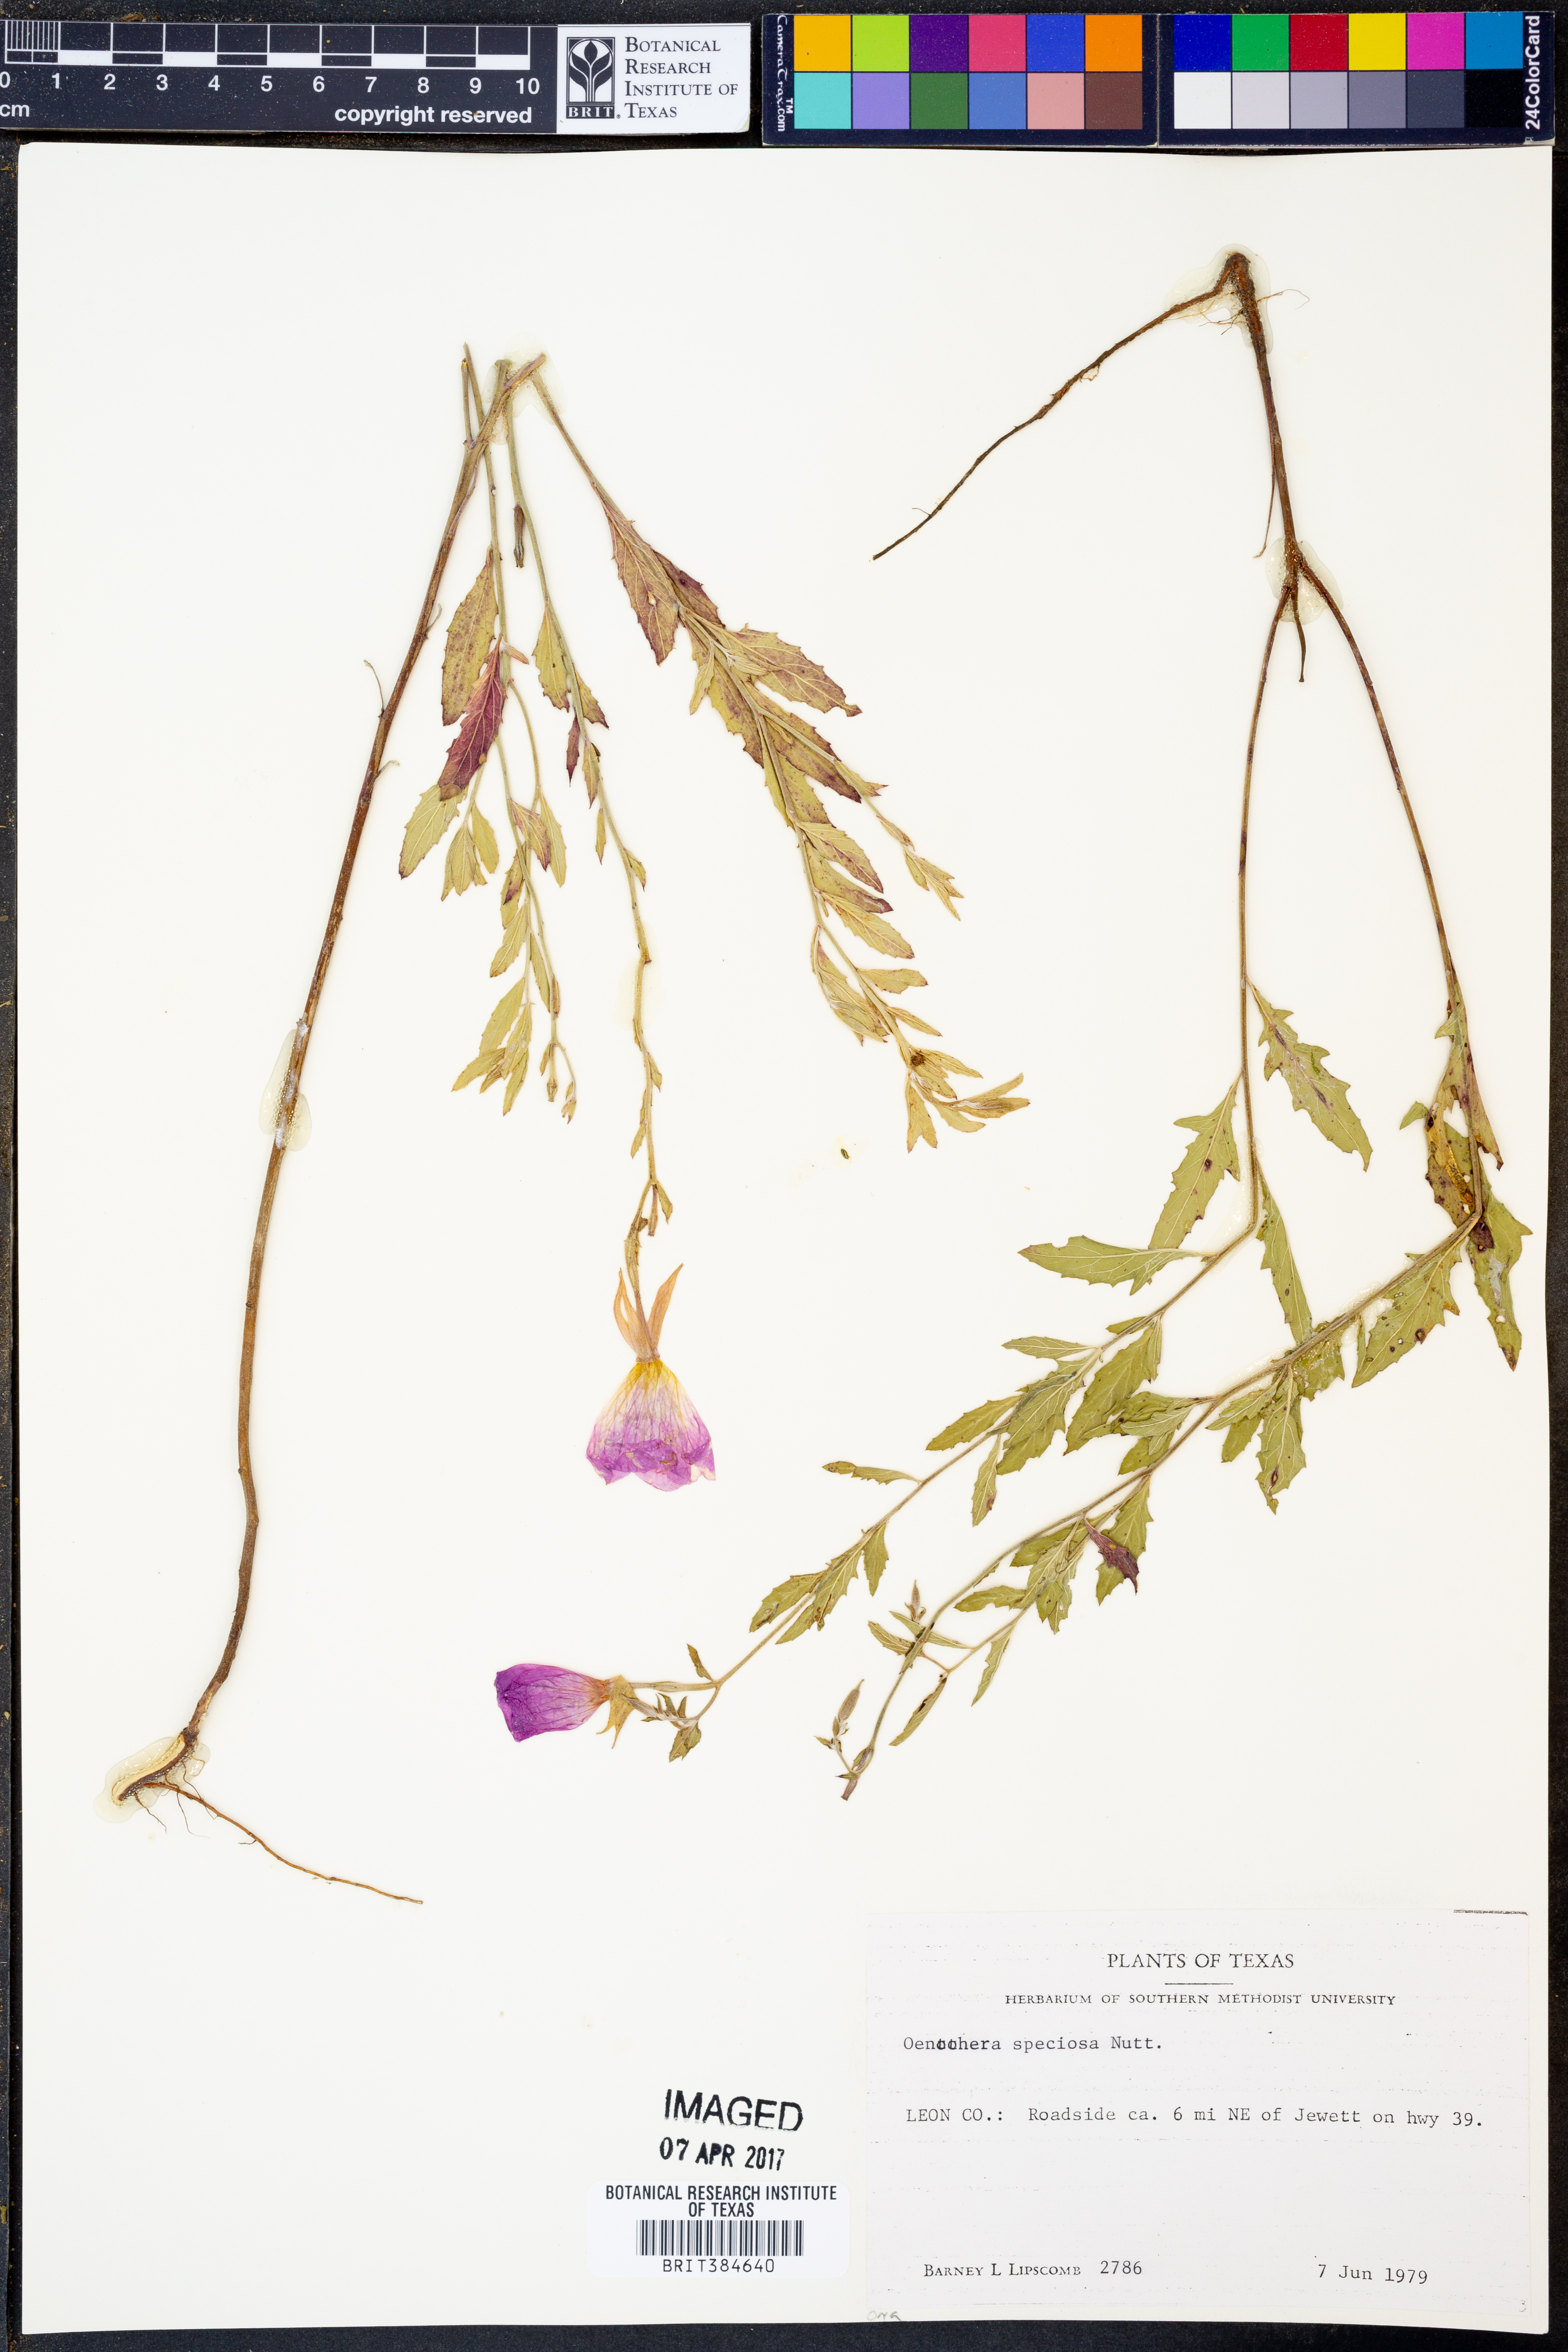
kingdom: Plantae
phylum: Tracheophyta
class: Magnoliopsida
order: Myrtales
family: Onagraceae
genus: Oenothera
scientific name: Oenothera speciosa
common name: White evening-primrose
